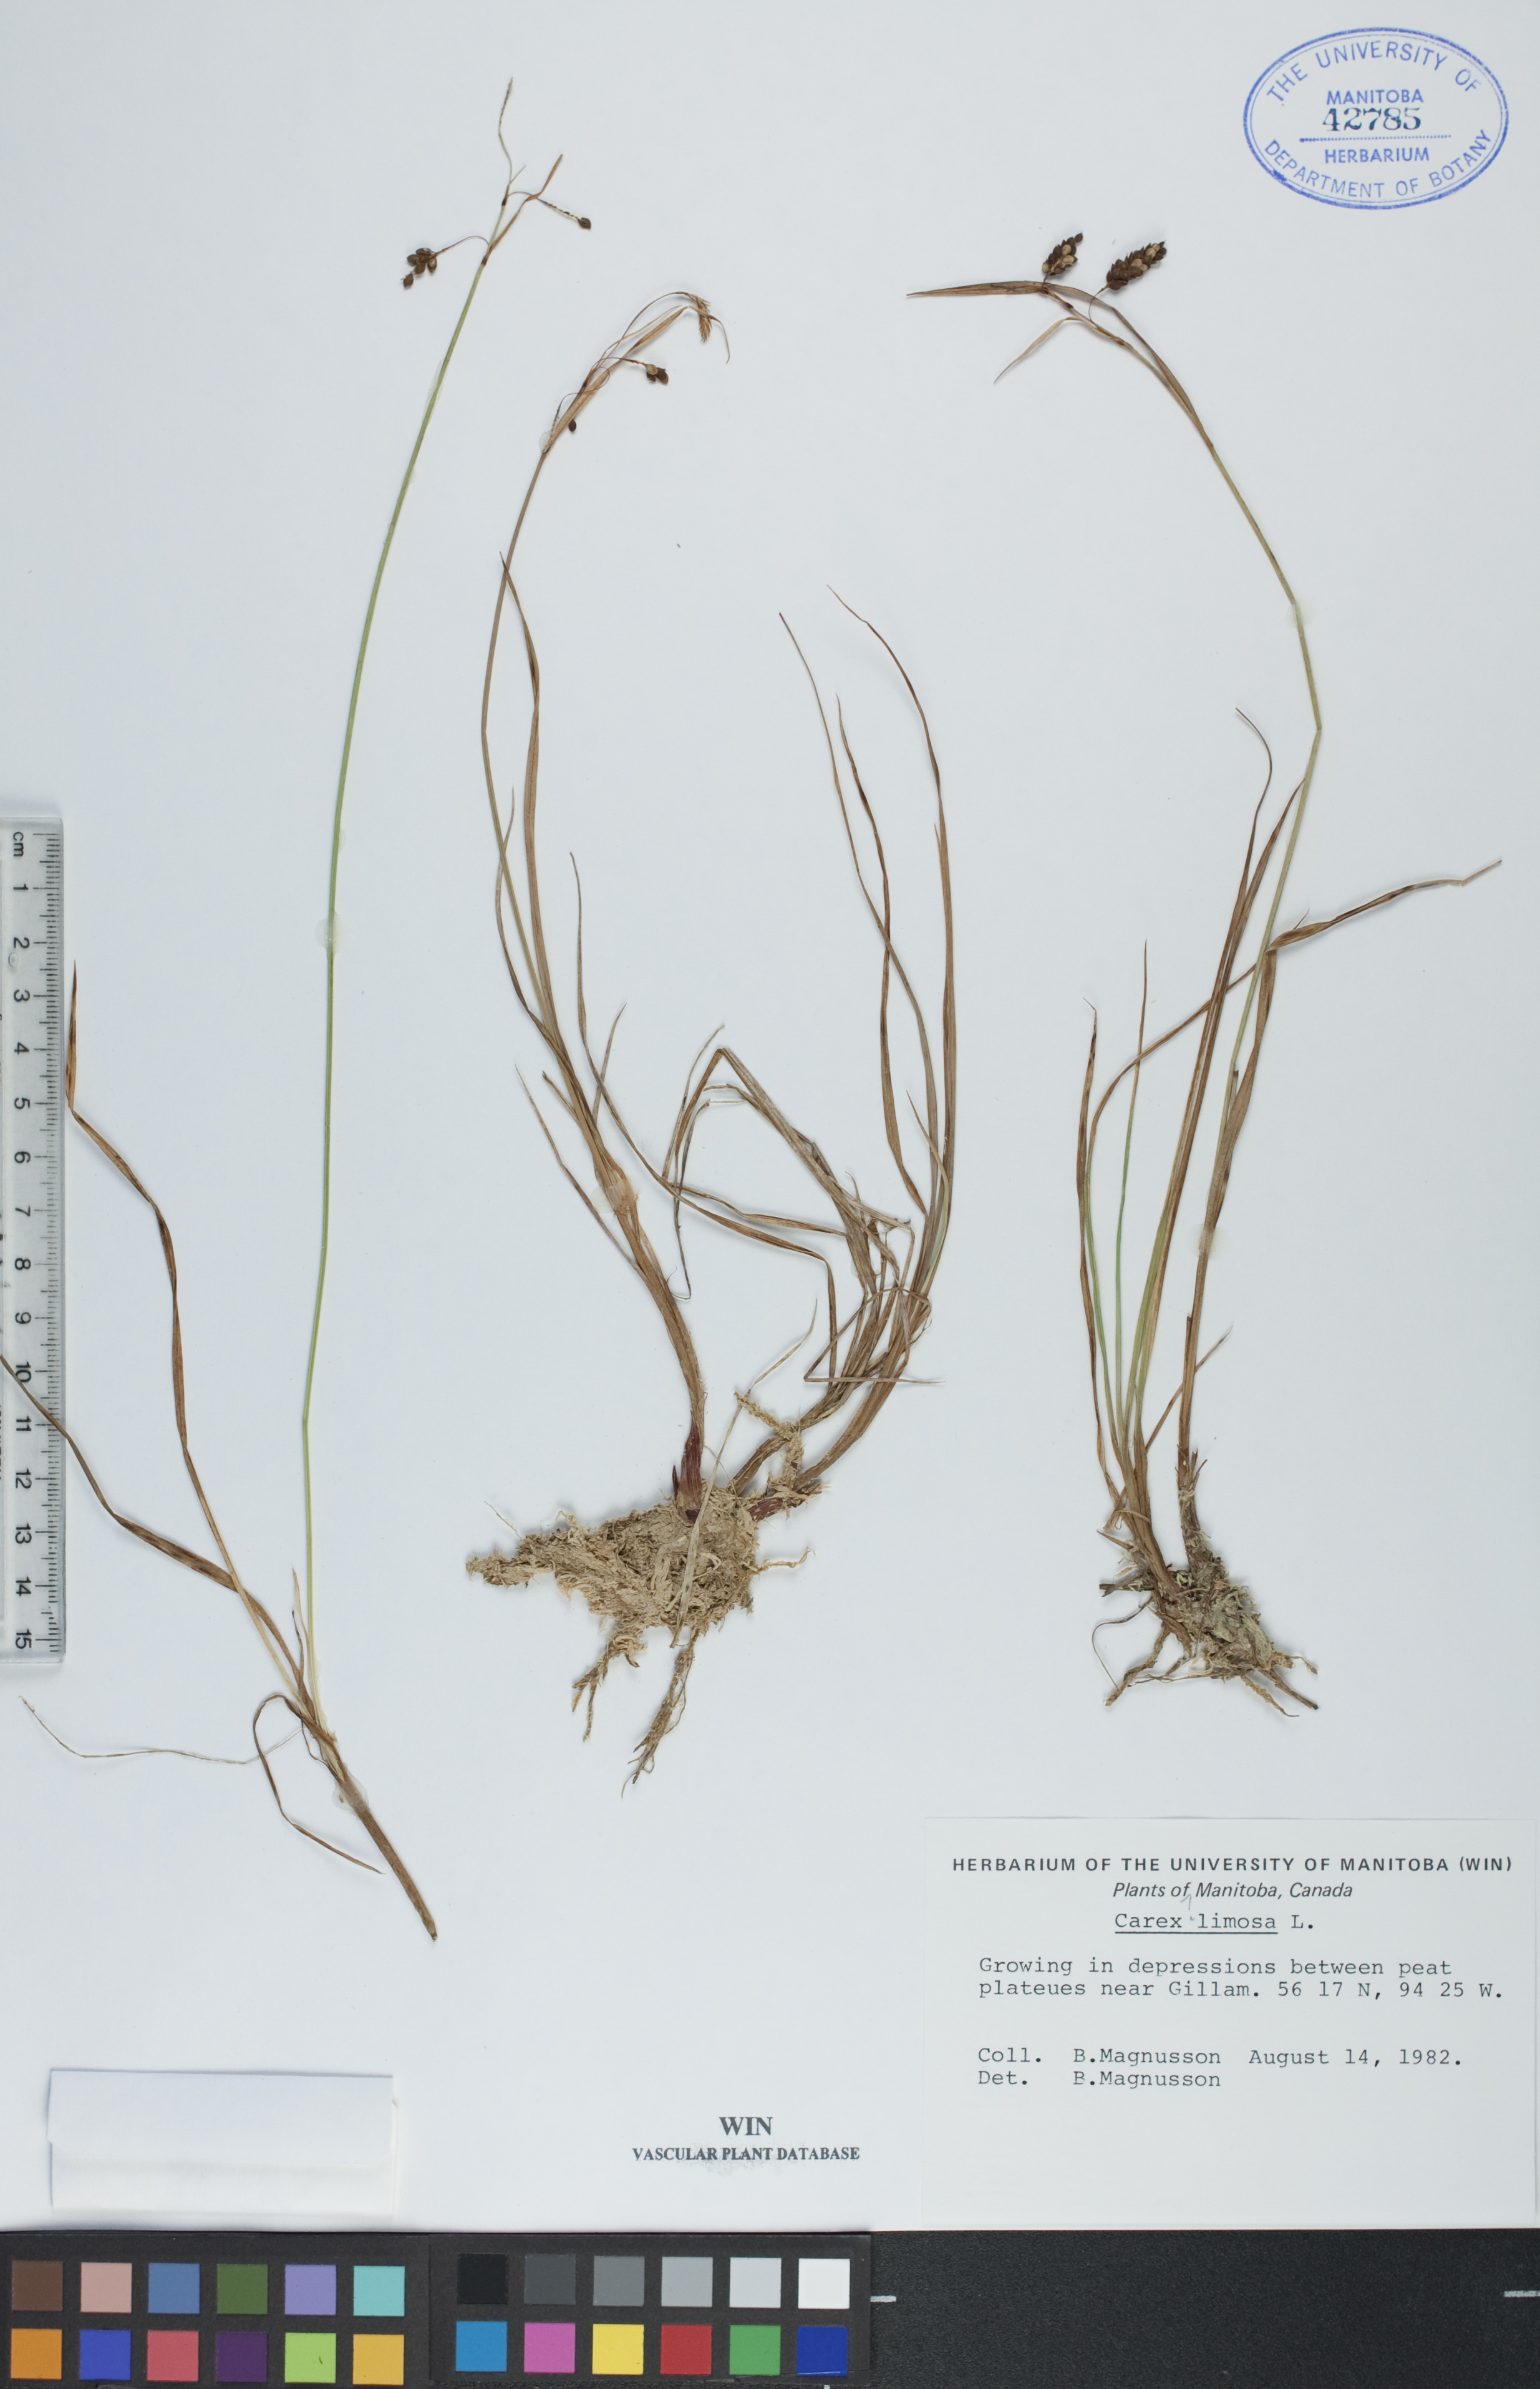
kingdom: Plantae
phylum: Tracheophyta
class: Liliopsida
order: Poales
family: Cyperaceae
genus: Carex
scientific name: Carex limosa
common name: Bog sedge
